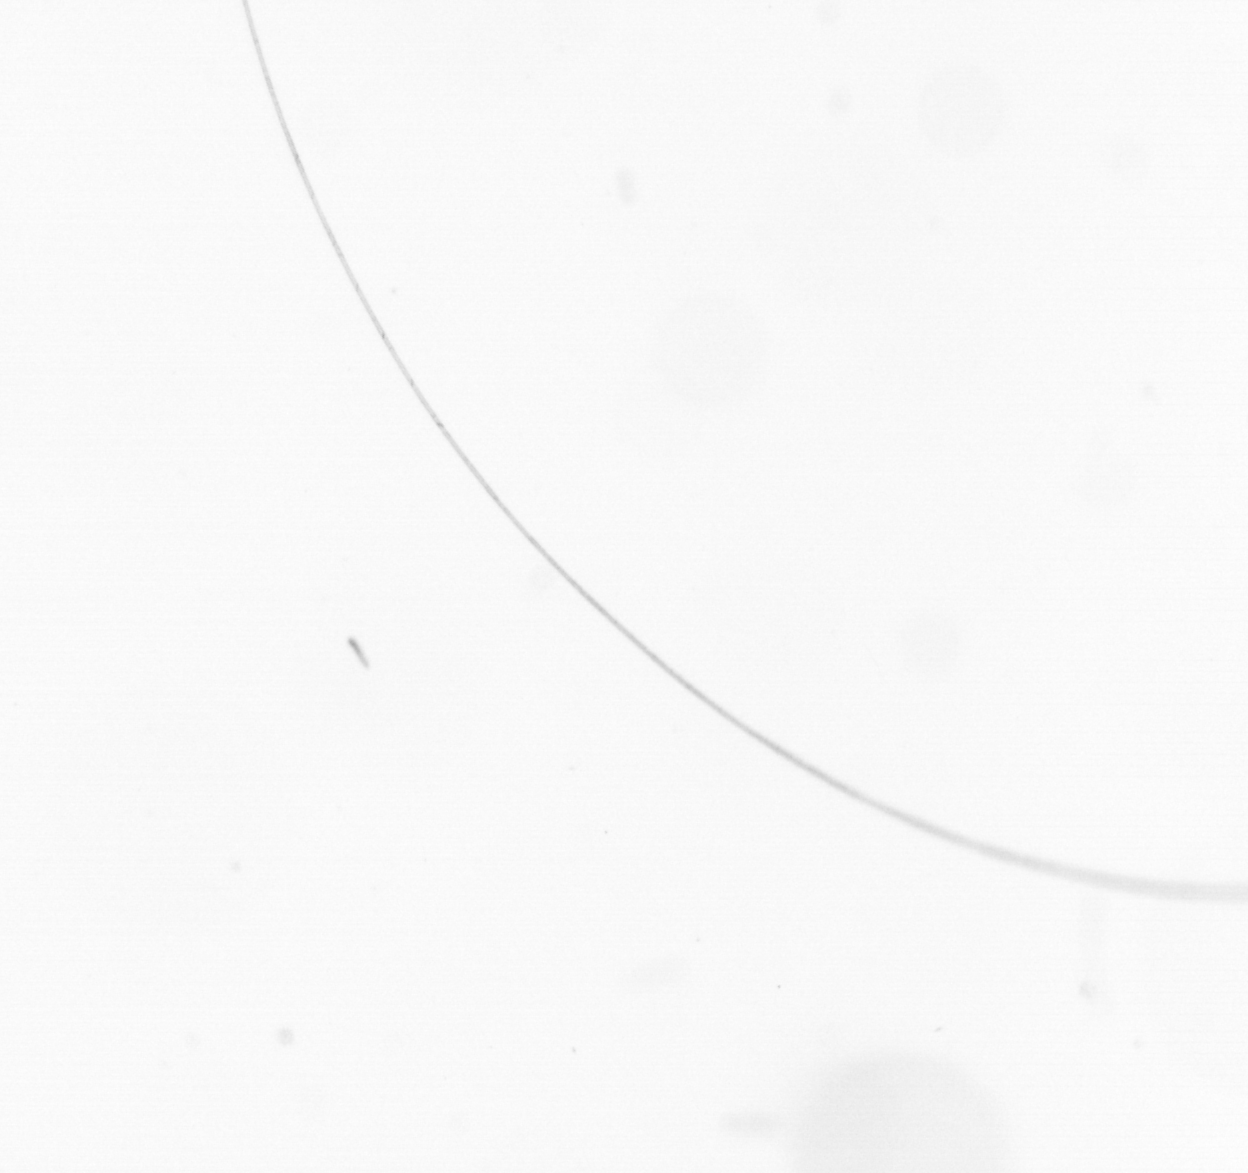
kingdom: Chromista
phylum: Ochrophyta
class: Bacillariophyceae
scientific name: Bacillariophyceae
